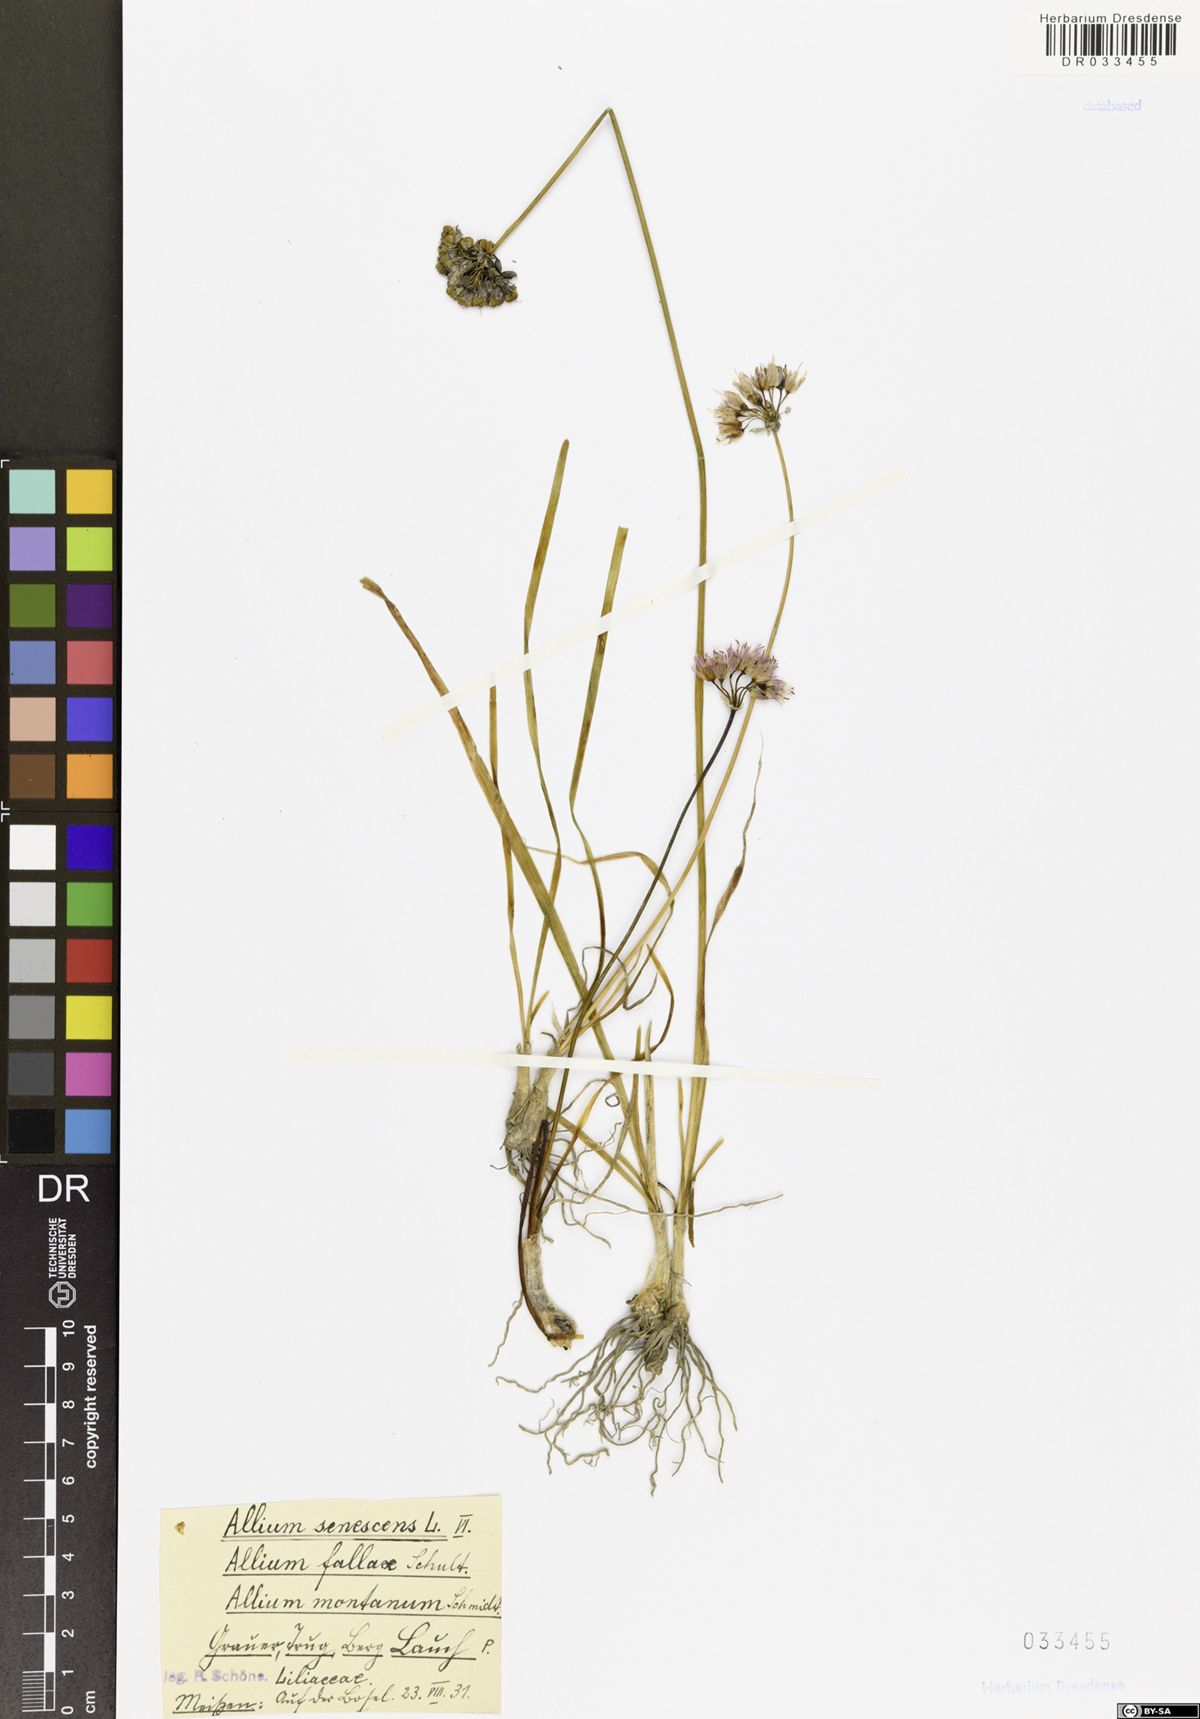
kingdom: Plantae
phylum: Tracheophyta
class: Liliopsida
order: Asparagales
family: Amaryllidaceae
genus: Allium
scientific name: Allium senescens
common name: German garlic
